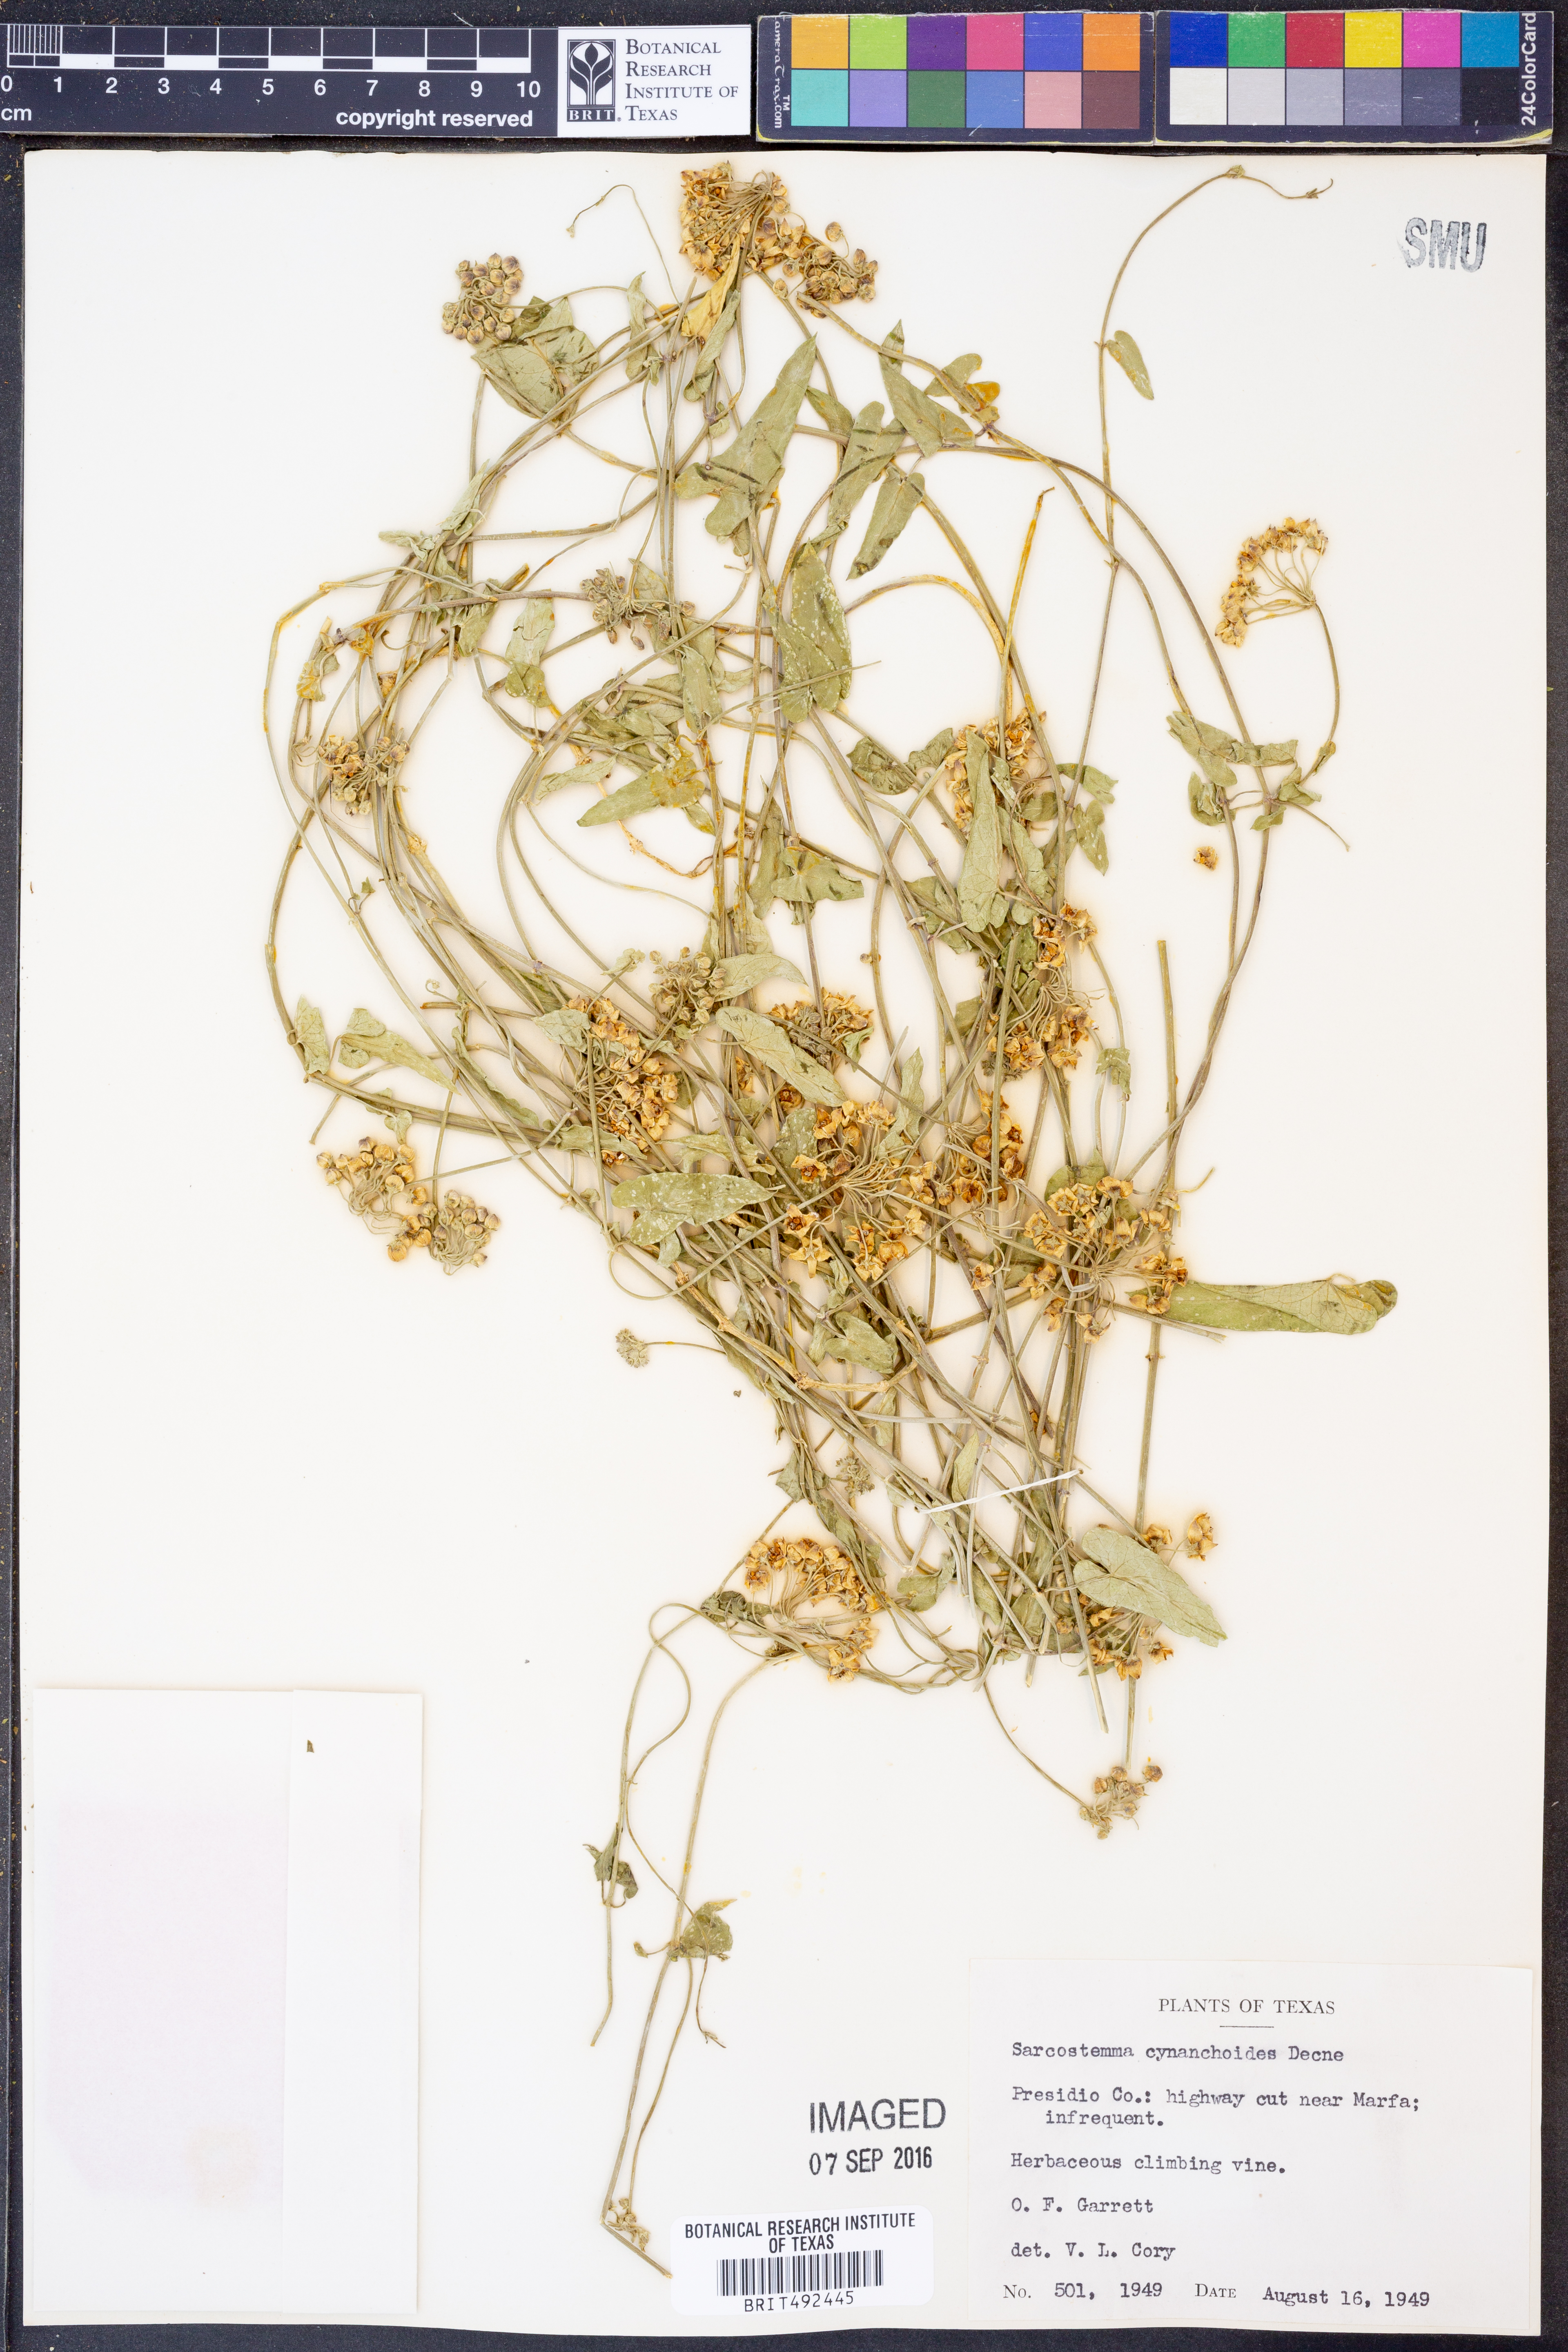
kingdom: Plantae
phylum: Tracheophyta
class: Magnoliopsida
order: Gentianales
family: Apocynaceae
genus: Funastrum
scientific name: Funastrum cynanchoides
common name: Climbing-milkweed
